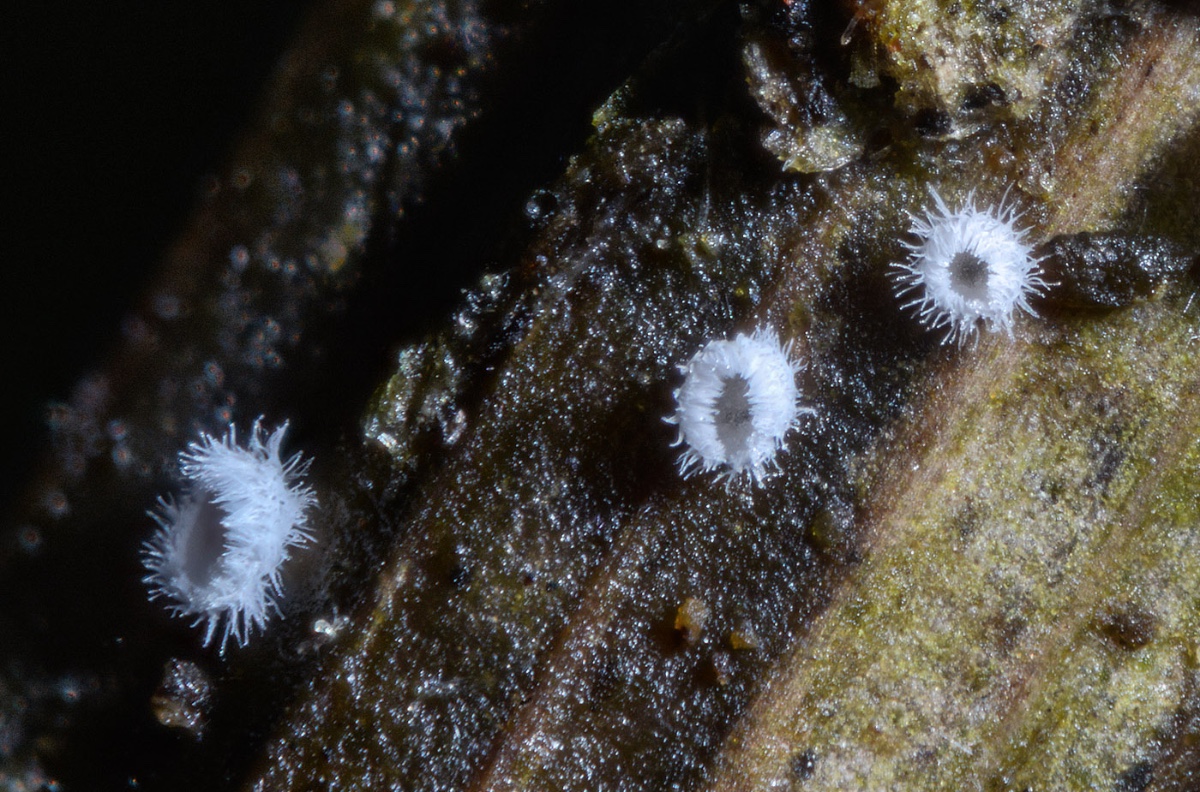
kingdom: Fungi
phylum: Basidiomycota
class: Agaricomycetes
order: Agaricales
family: Niaceae
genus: Flagelloscypha
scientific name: Flagelloscypha
